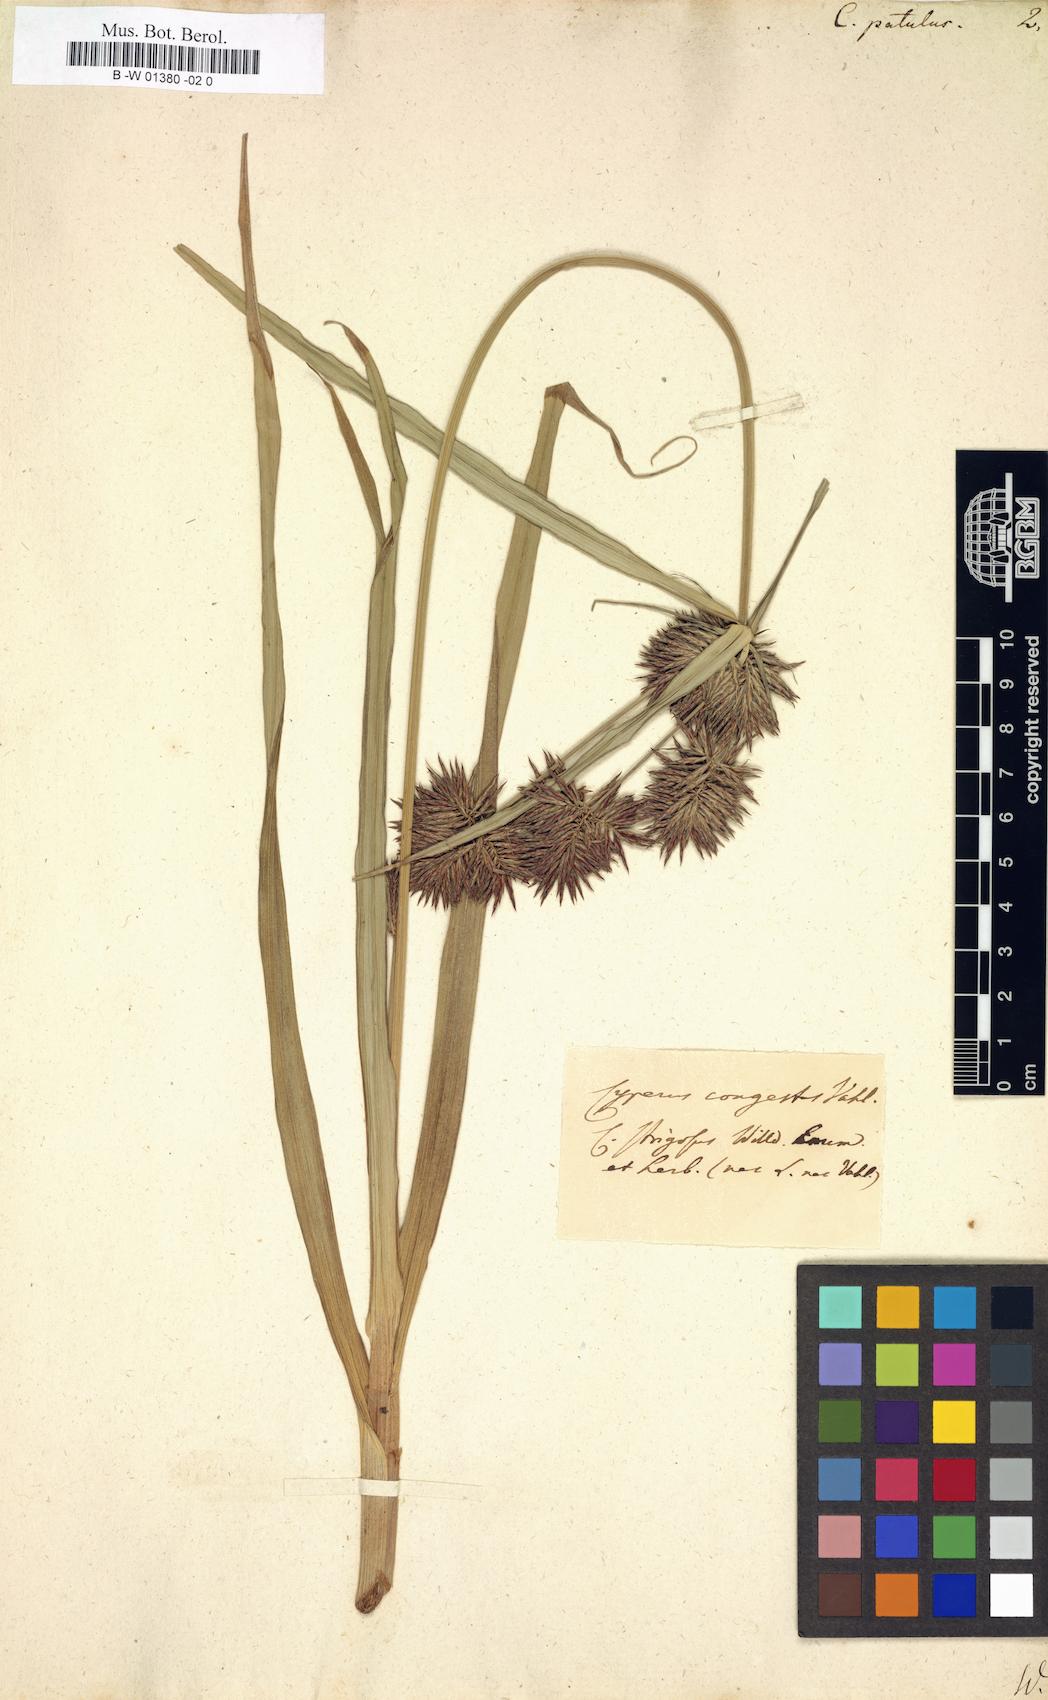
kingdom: Plantae
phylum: Tracheophyta
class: Liliopsida
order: Poales
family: Cyperaceae
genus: Cyperus
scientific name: Cyperus
